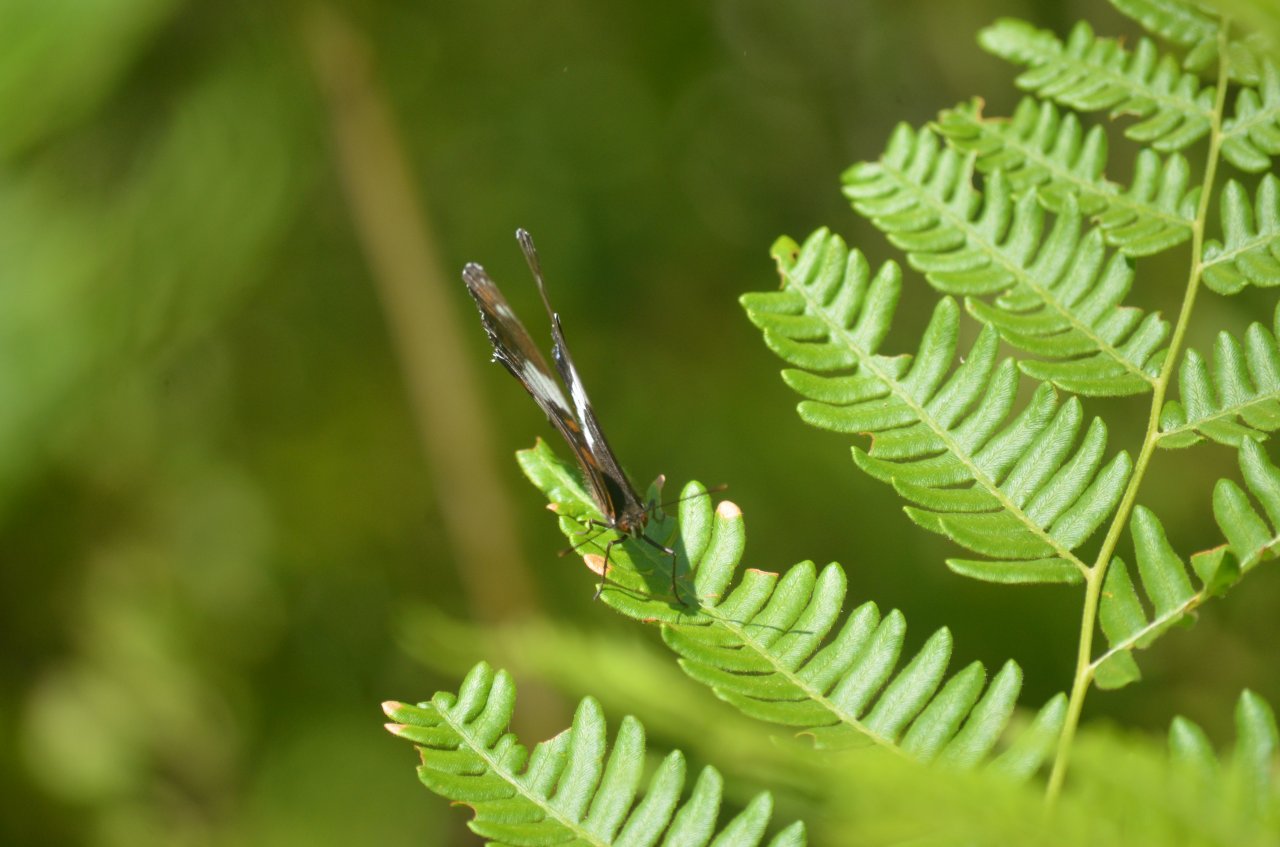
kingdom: Animalia
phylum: Arthropoda
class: Insecta
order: Lepidoptera
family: Nymphalidae
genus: Limenitis
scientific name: Limenitis arthemis
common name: Red-spotted Admiral
